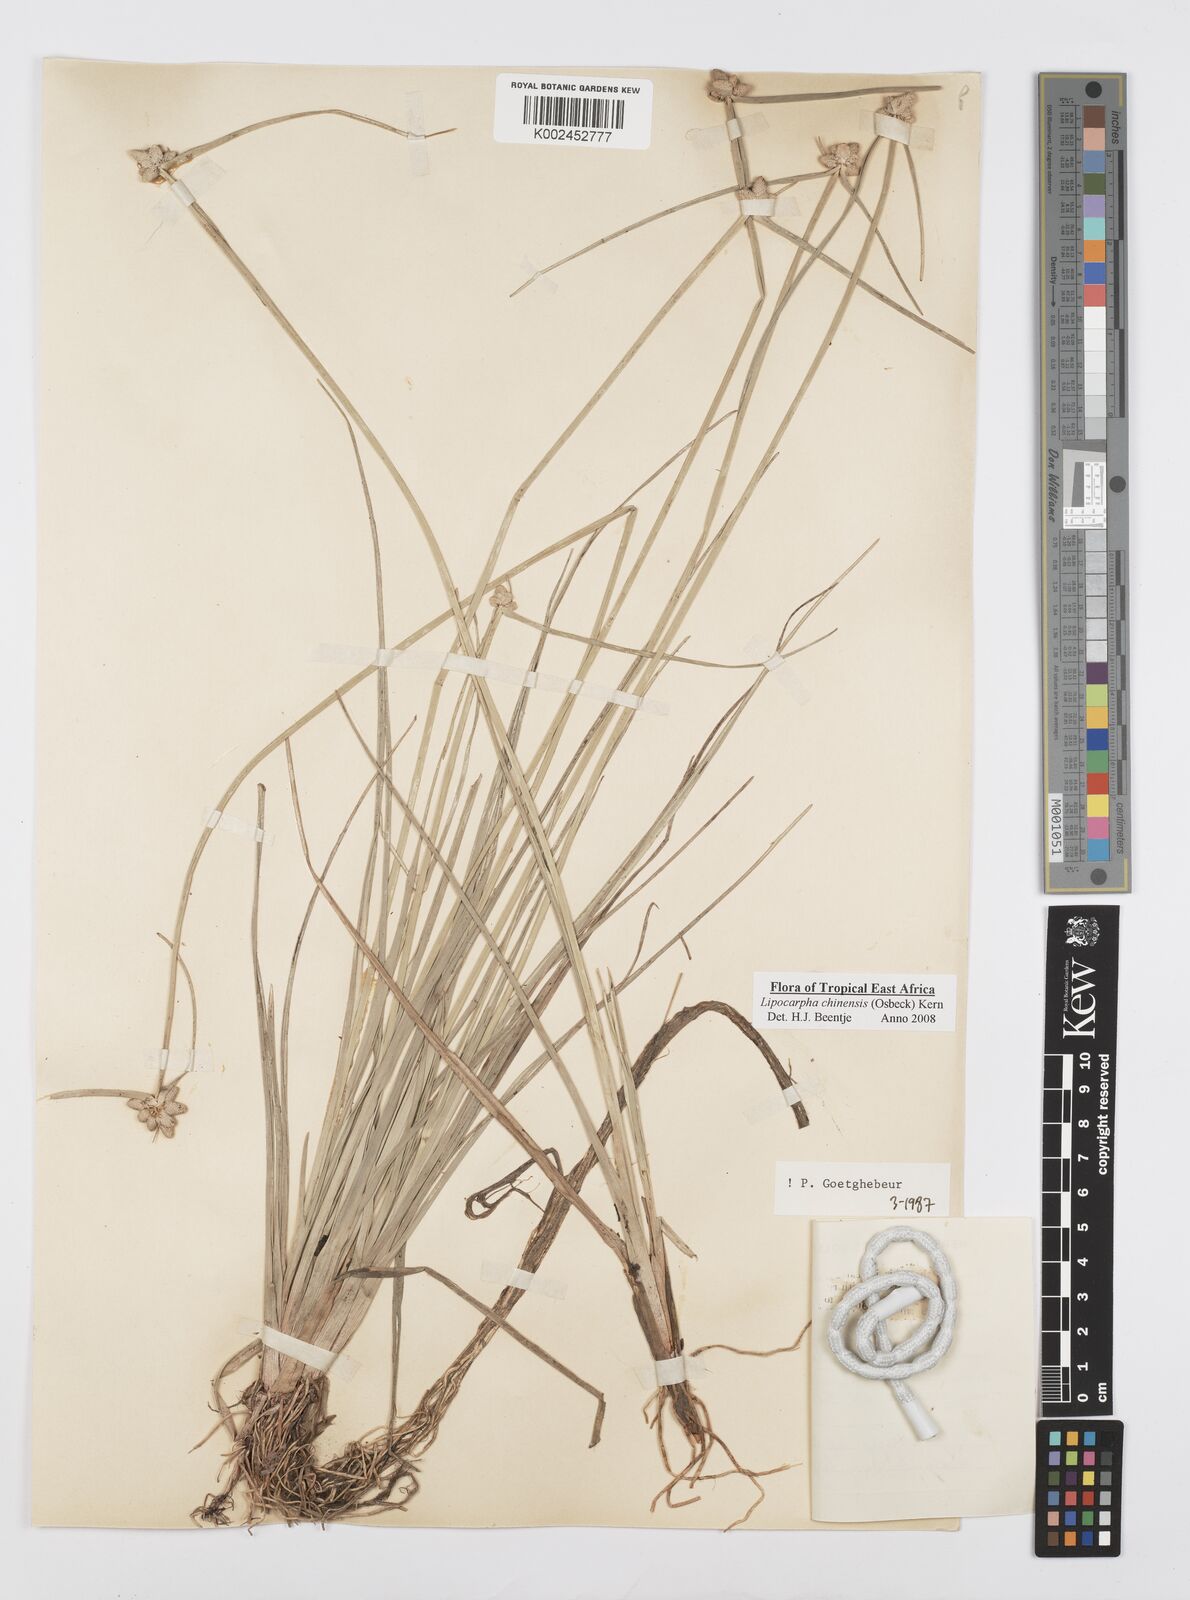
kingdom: Plantae
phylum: Tracheophyta
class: Liliopsida
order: Poales
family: Cyperaceae
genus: Cyperus
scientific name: Cyperus albescens
